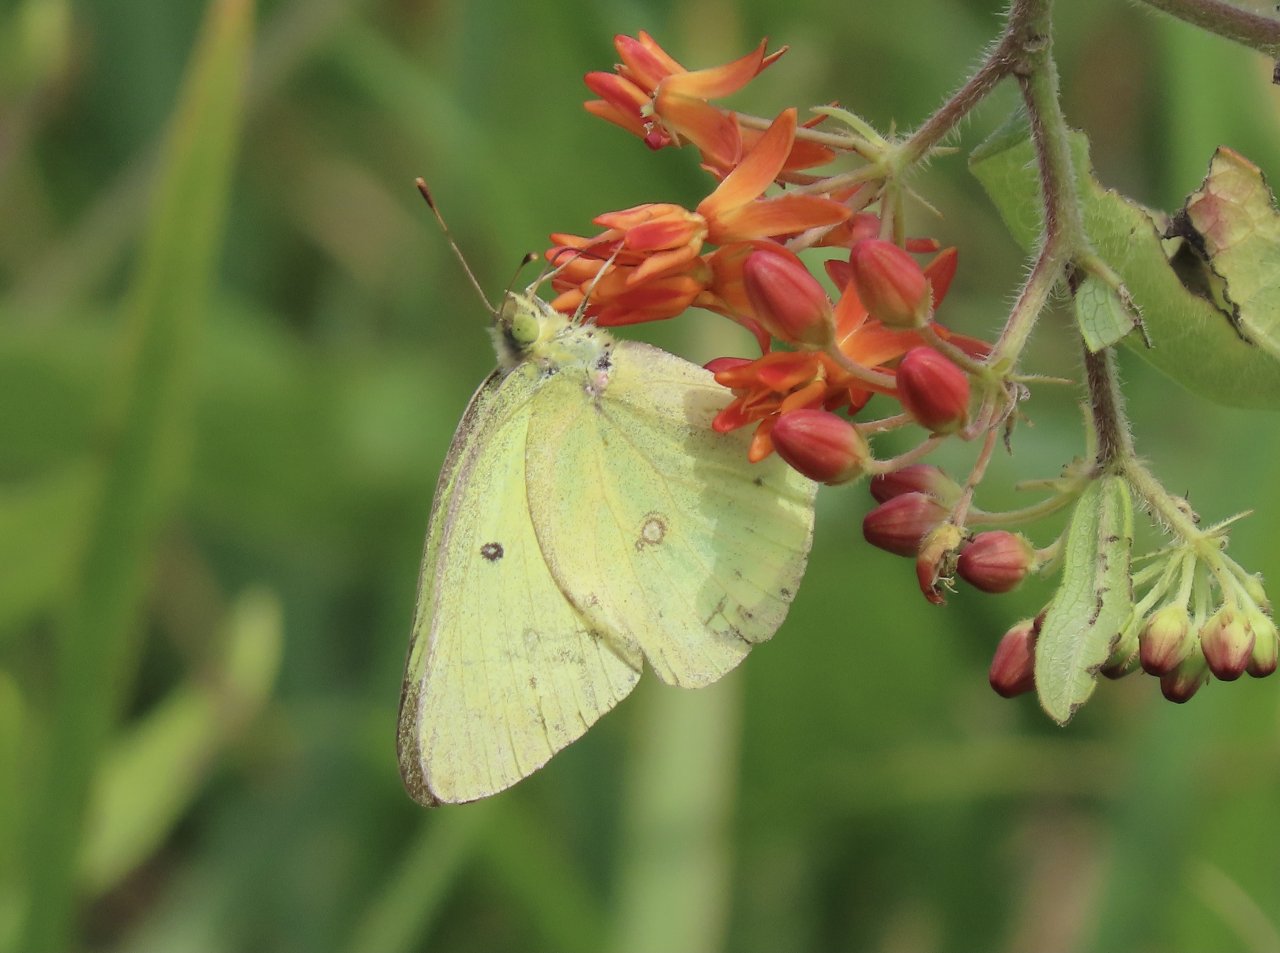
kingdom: Animalia
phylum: Arthropoda
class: Insecta
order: Lepidoptera
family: Pieridae
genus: Colias
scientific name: Colias philodice
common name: Clouded Sulphur
